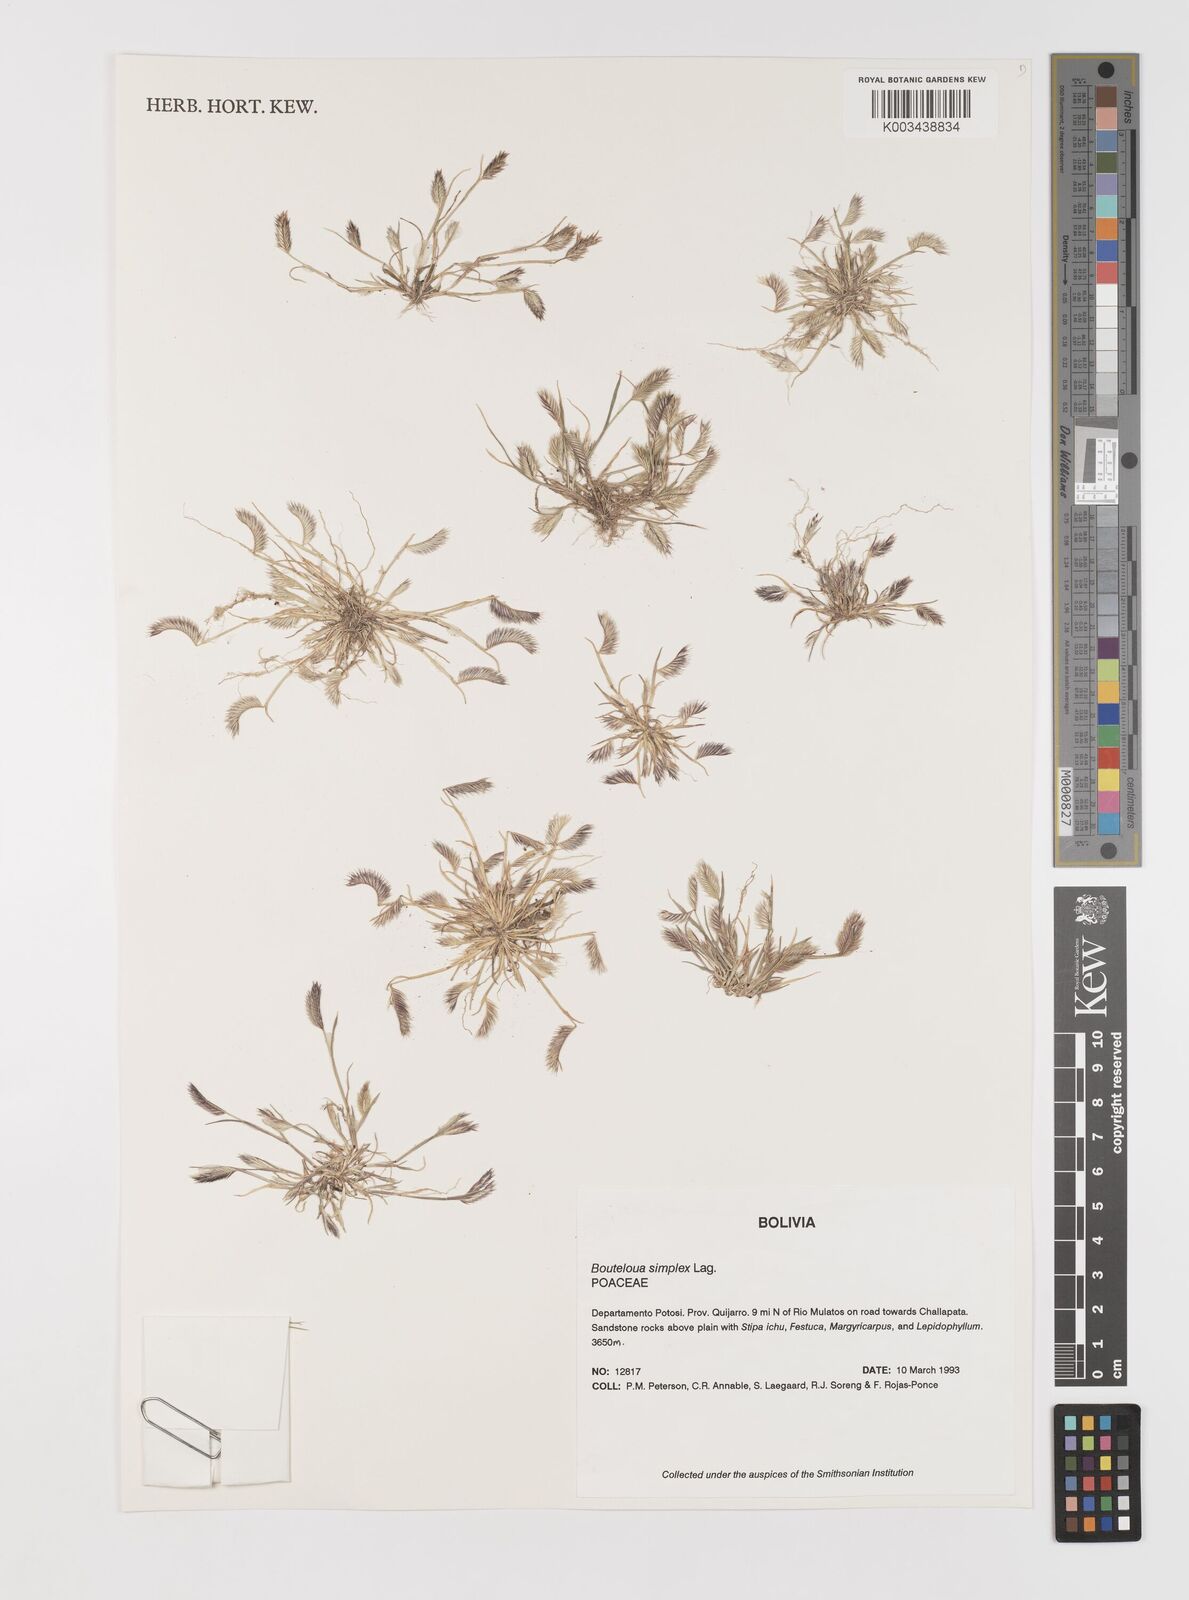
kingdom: Plantae
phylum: Tracheophyta
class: Liliopsida
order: Poales
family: Poaceae
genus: Bouteloua
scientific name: Bouteloua simplex
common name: Mat grama
